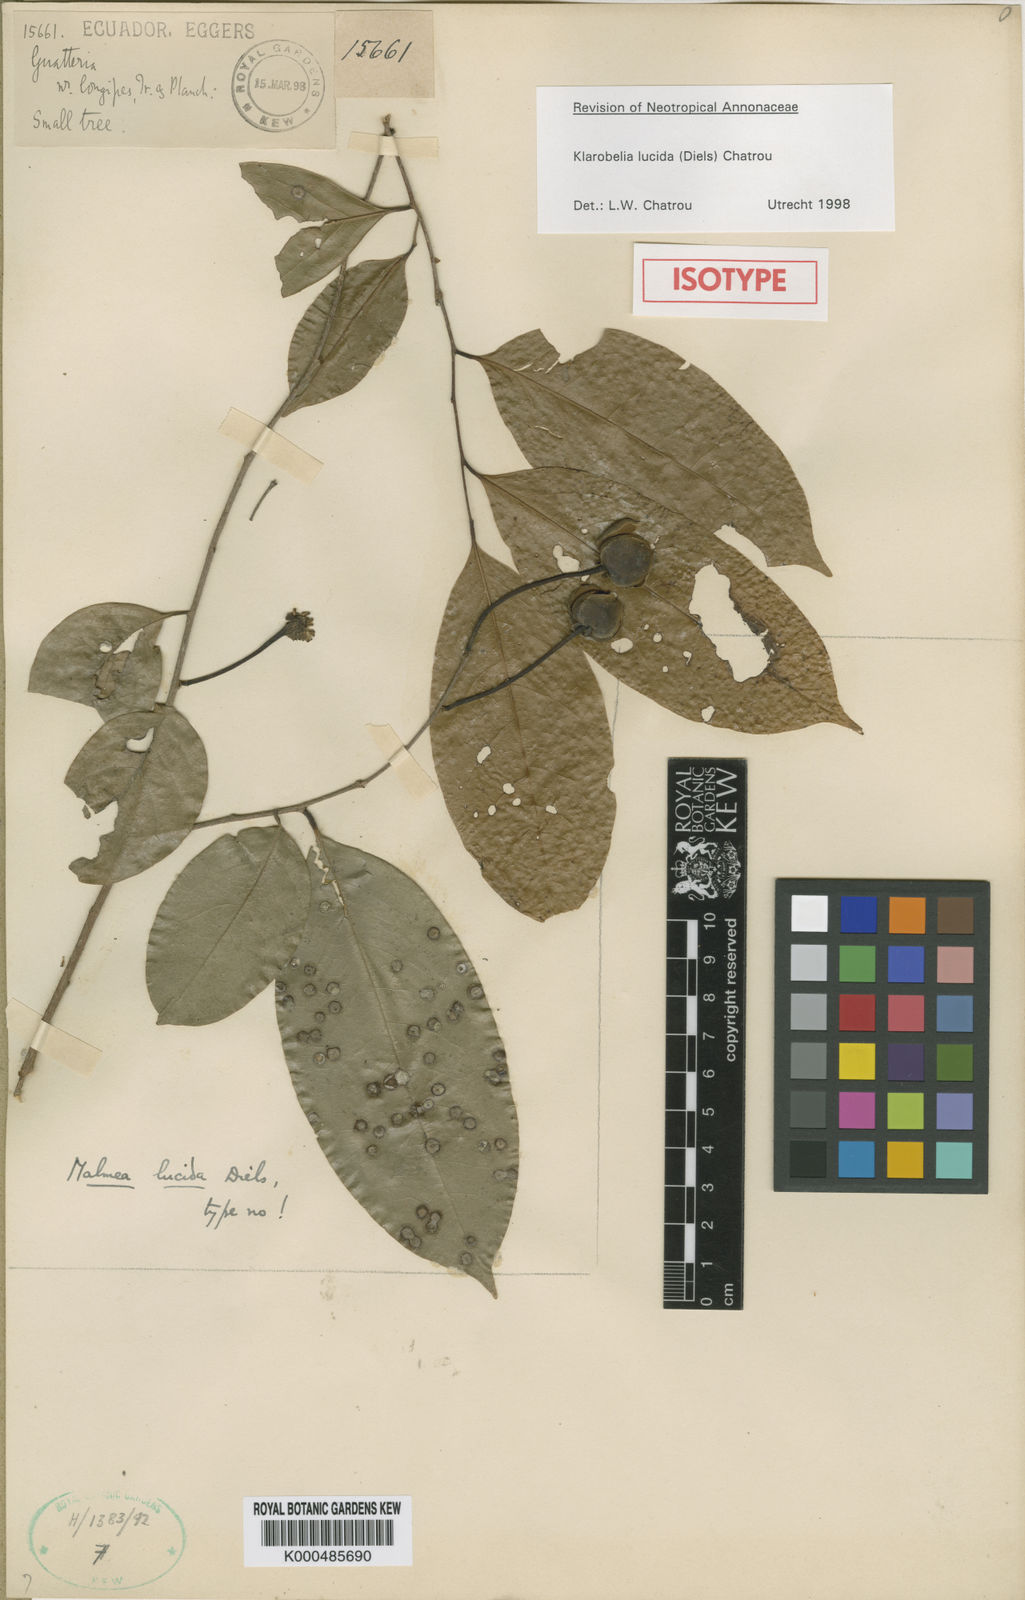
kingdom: Plantae
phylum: Tracheophyta
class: Magnoliopsida
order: Magnoliales
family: Annonaceae
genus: Klarobelia
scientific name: Klarobelia lucida
